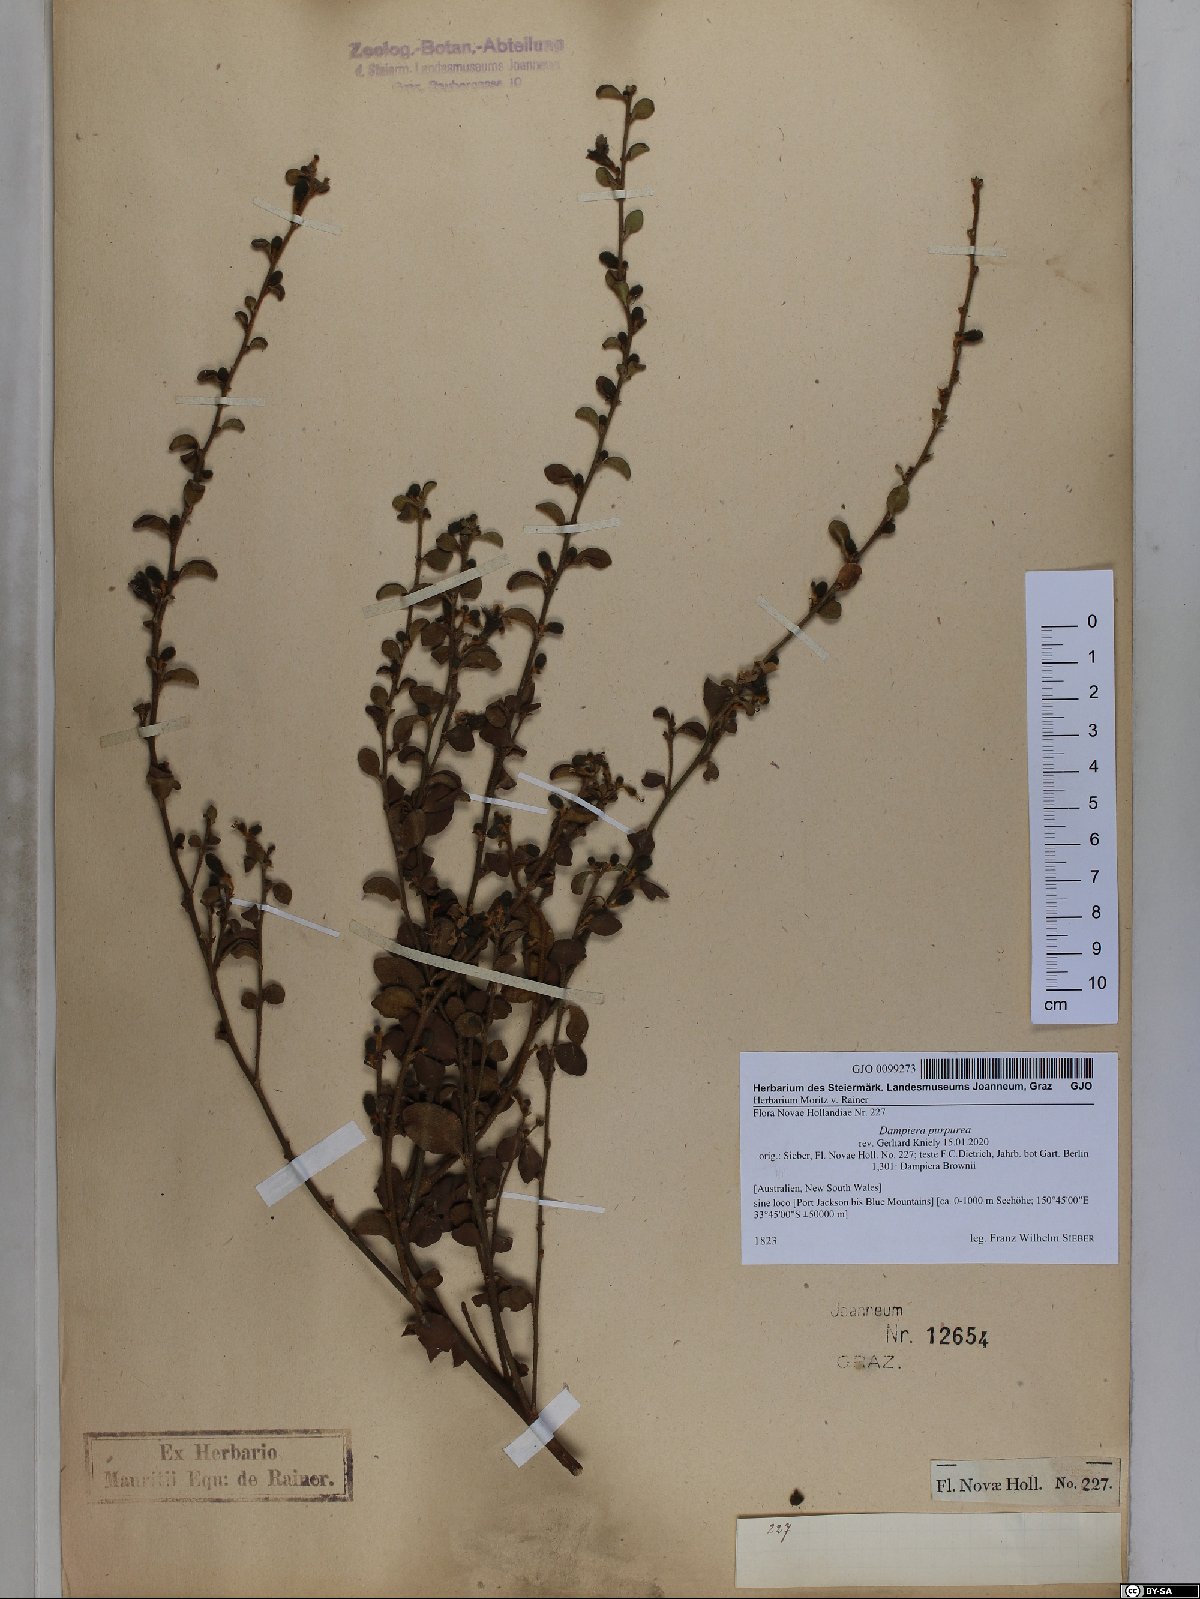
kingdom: Plantae
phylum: Tracheophyta
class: Magnoliopsida
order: Asterales
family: Goodeniaceae
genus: Dampiera
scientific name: Dampiera purpurea
